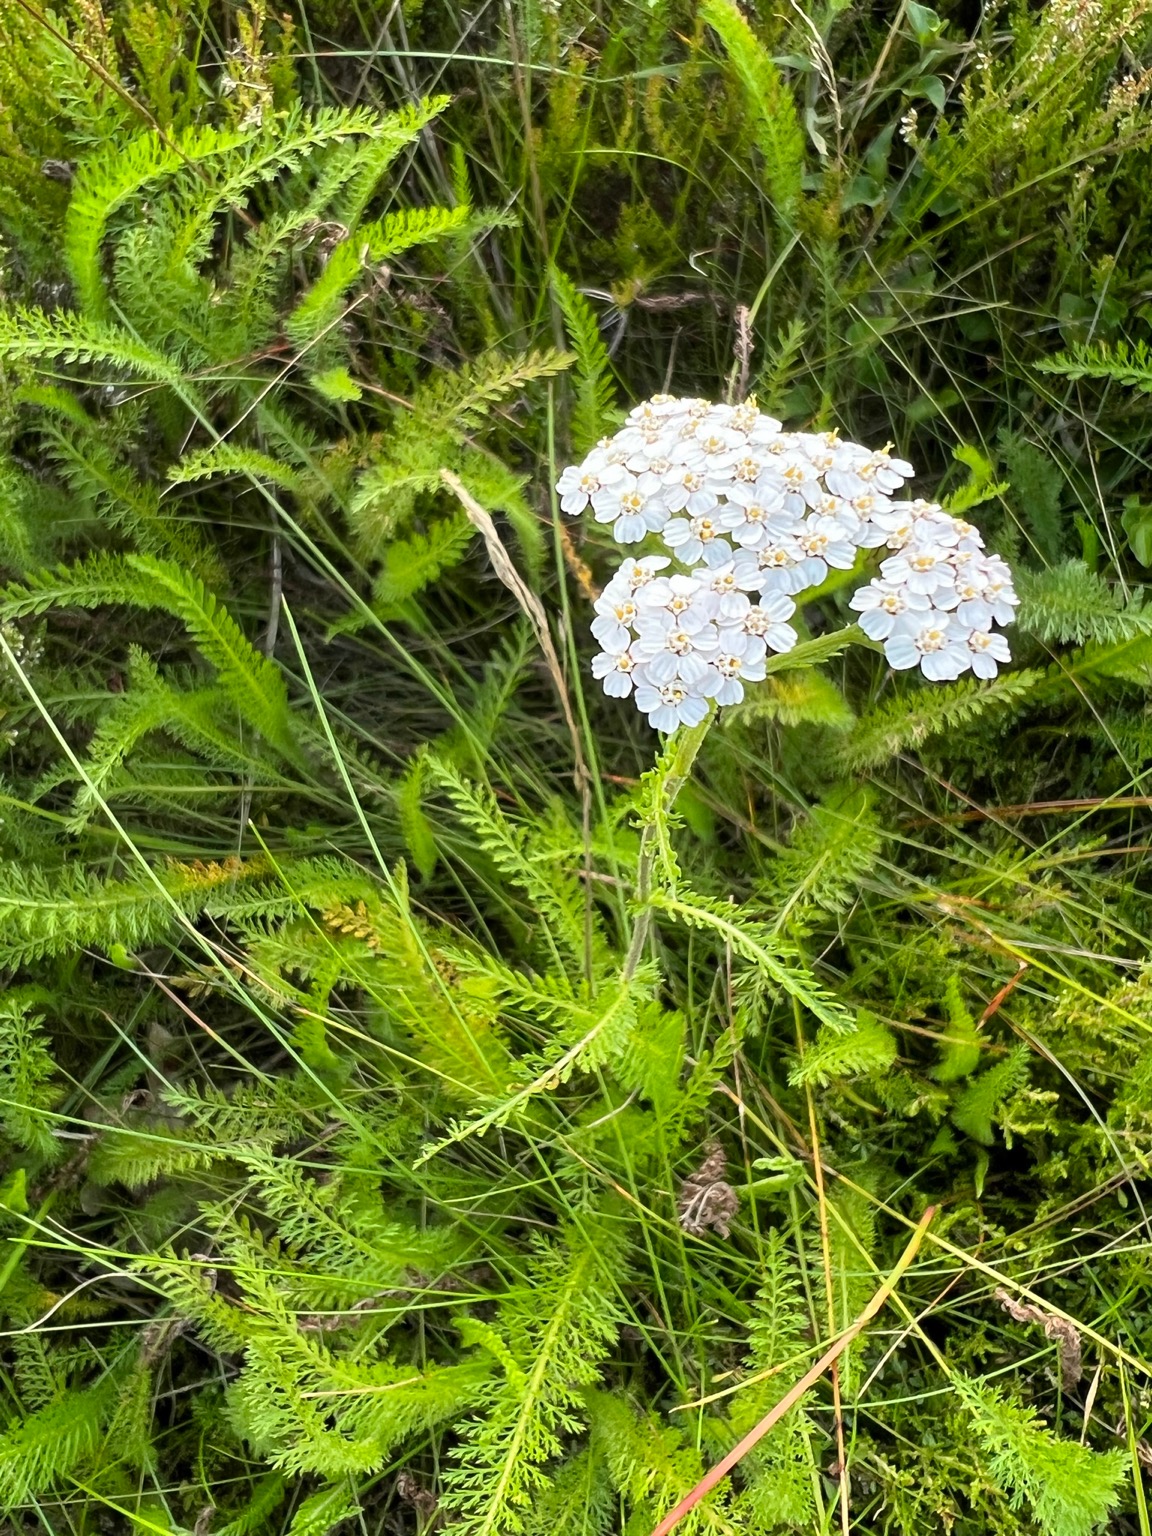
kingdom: Plantae
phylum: Tracheophyta
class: Magnoliopsida
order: Asterales
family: Asteraceae
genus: Achillea
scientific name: Achillea millefolium
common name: Almindelig røllike
